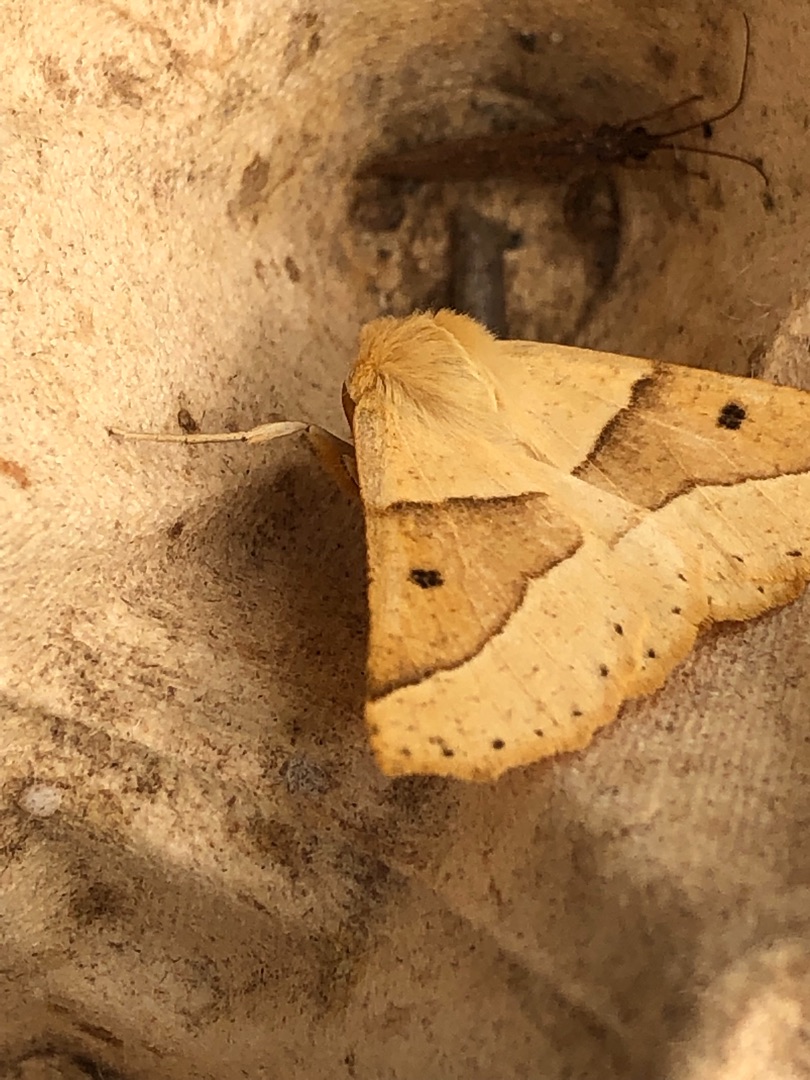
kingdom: Animalia
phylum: Arthropoda
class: Insecta
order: Lepidoptera
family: Geometridae
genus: Crocallis
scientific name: Crocallis elinguaria
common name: Okkergul rovmåler
